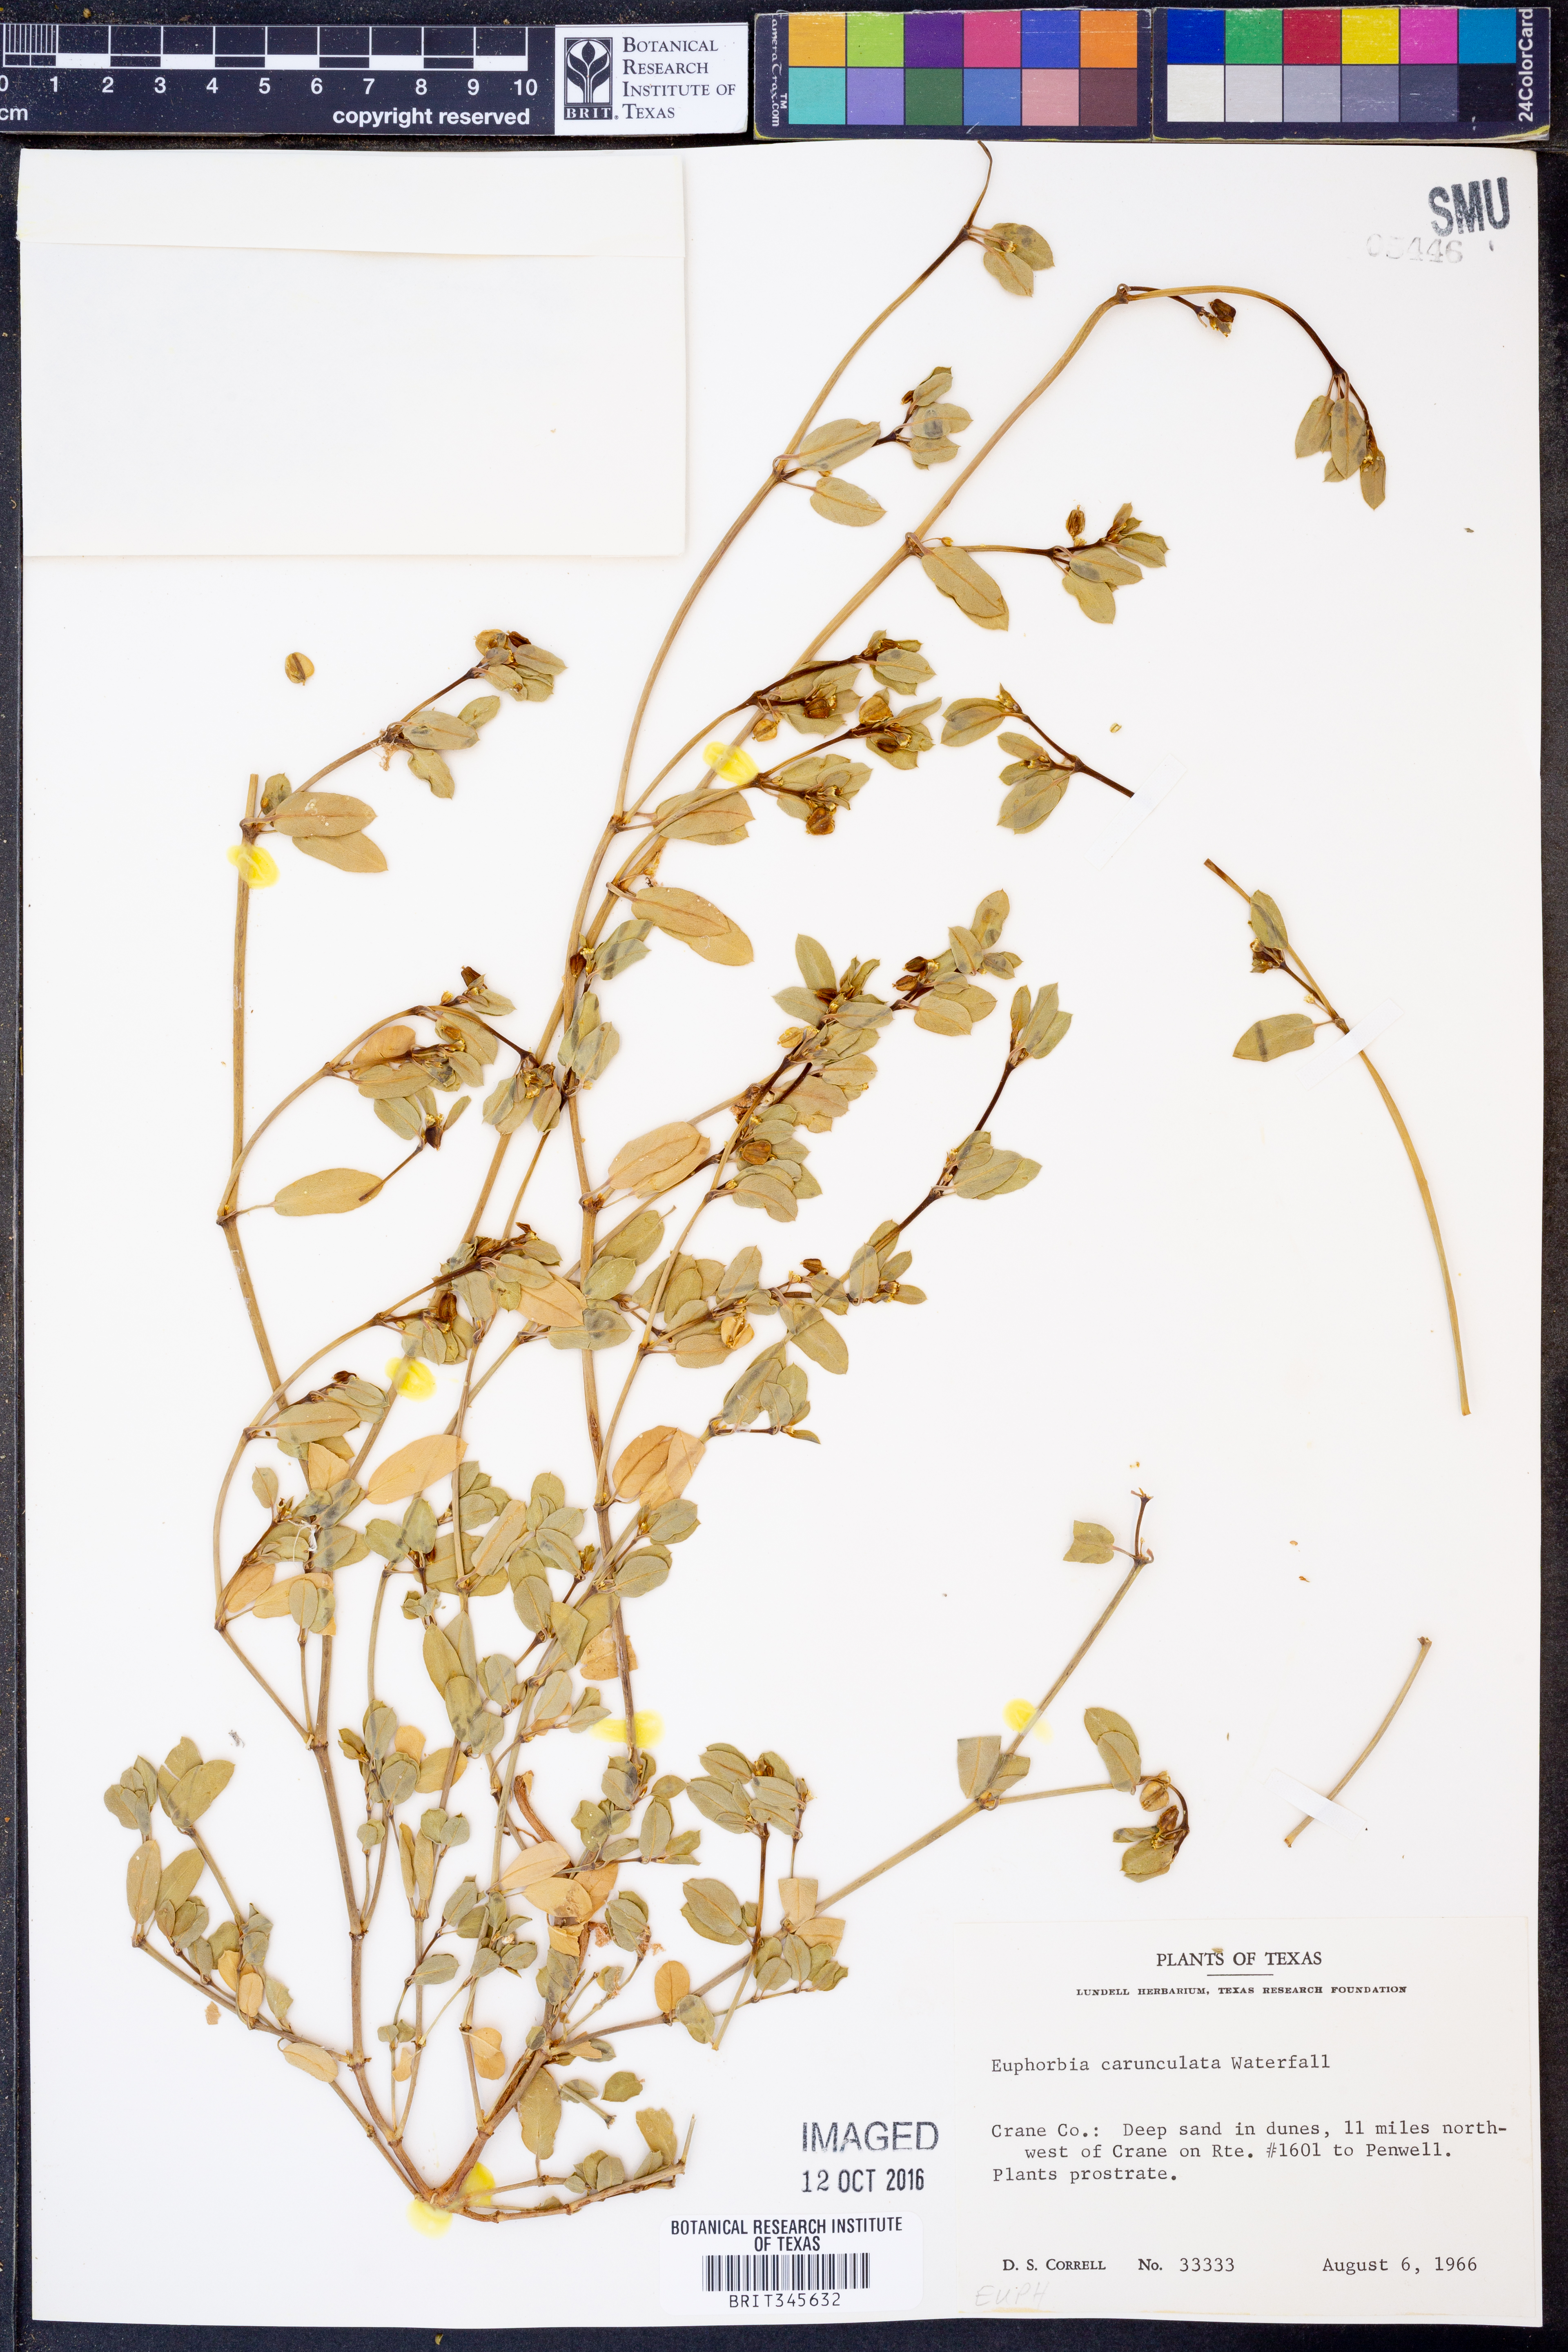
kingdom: Plantae
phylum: Tracheophyta
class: Magnoliopsida
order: Malpighiales
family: Euphorbiaceae
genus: Euphorbia
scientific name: Euphorbia carunculata
